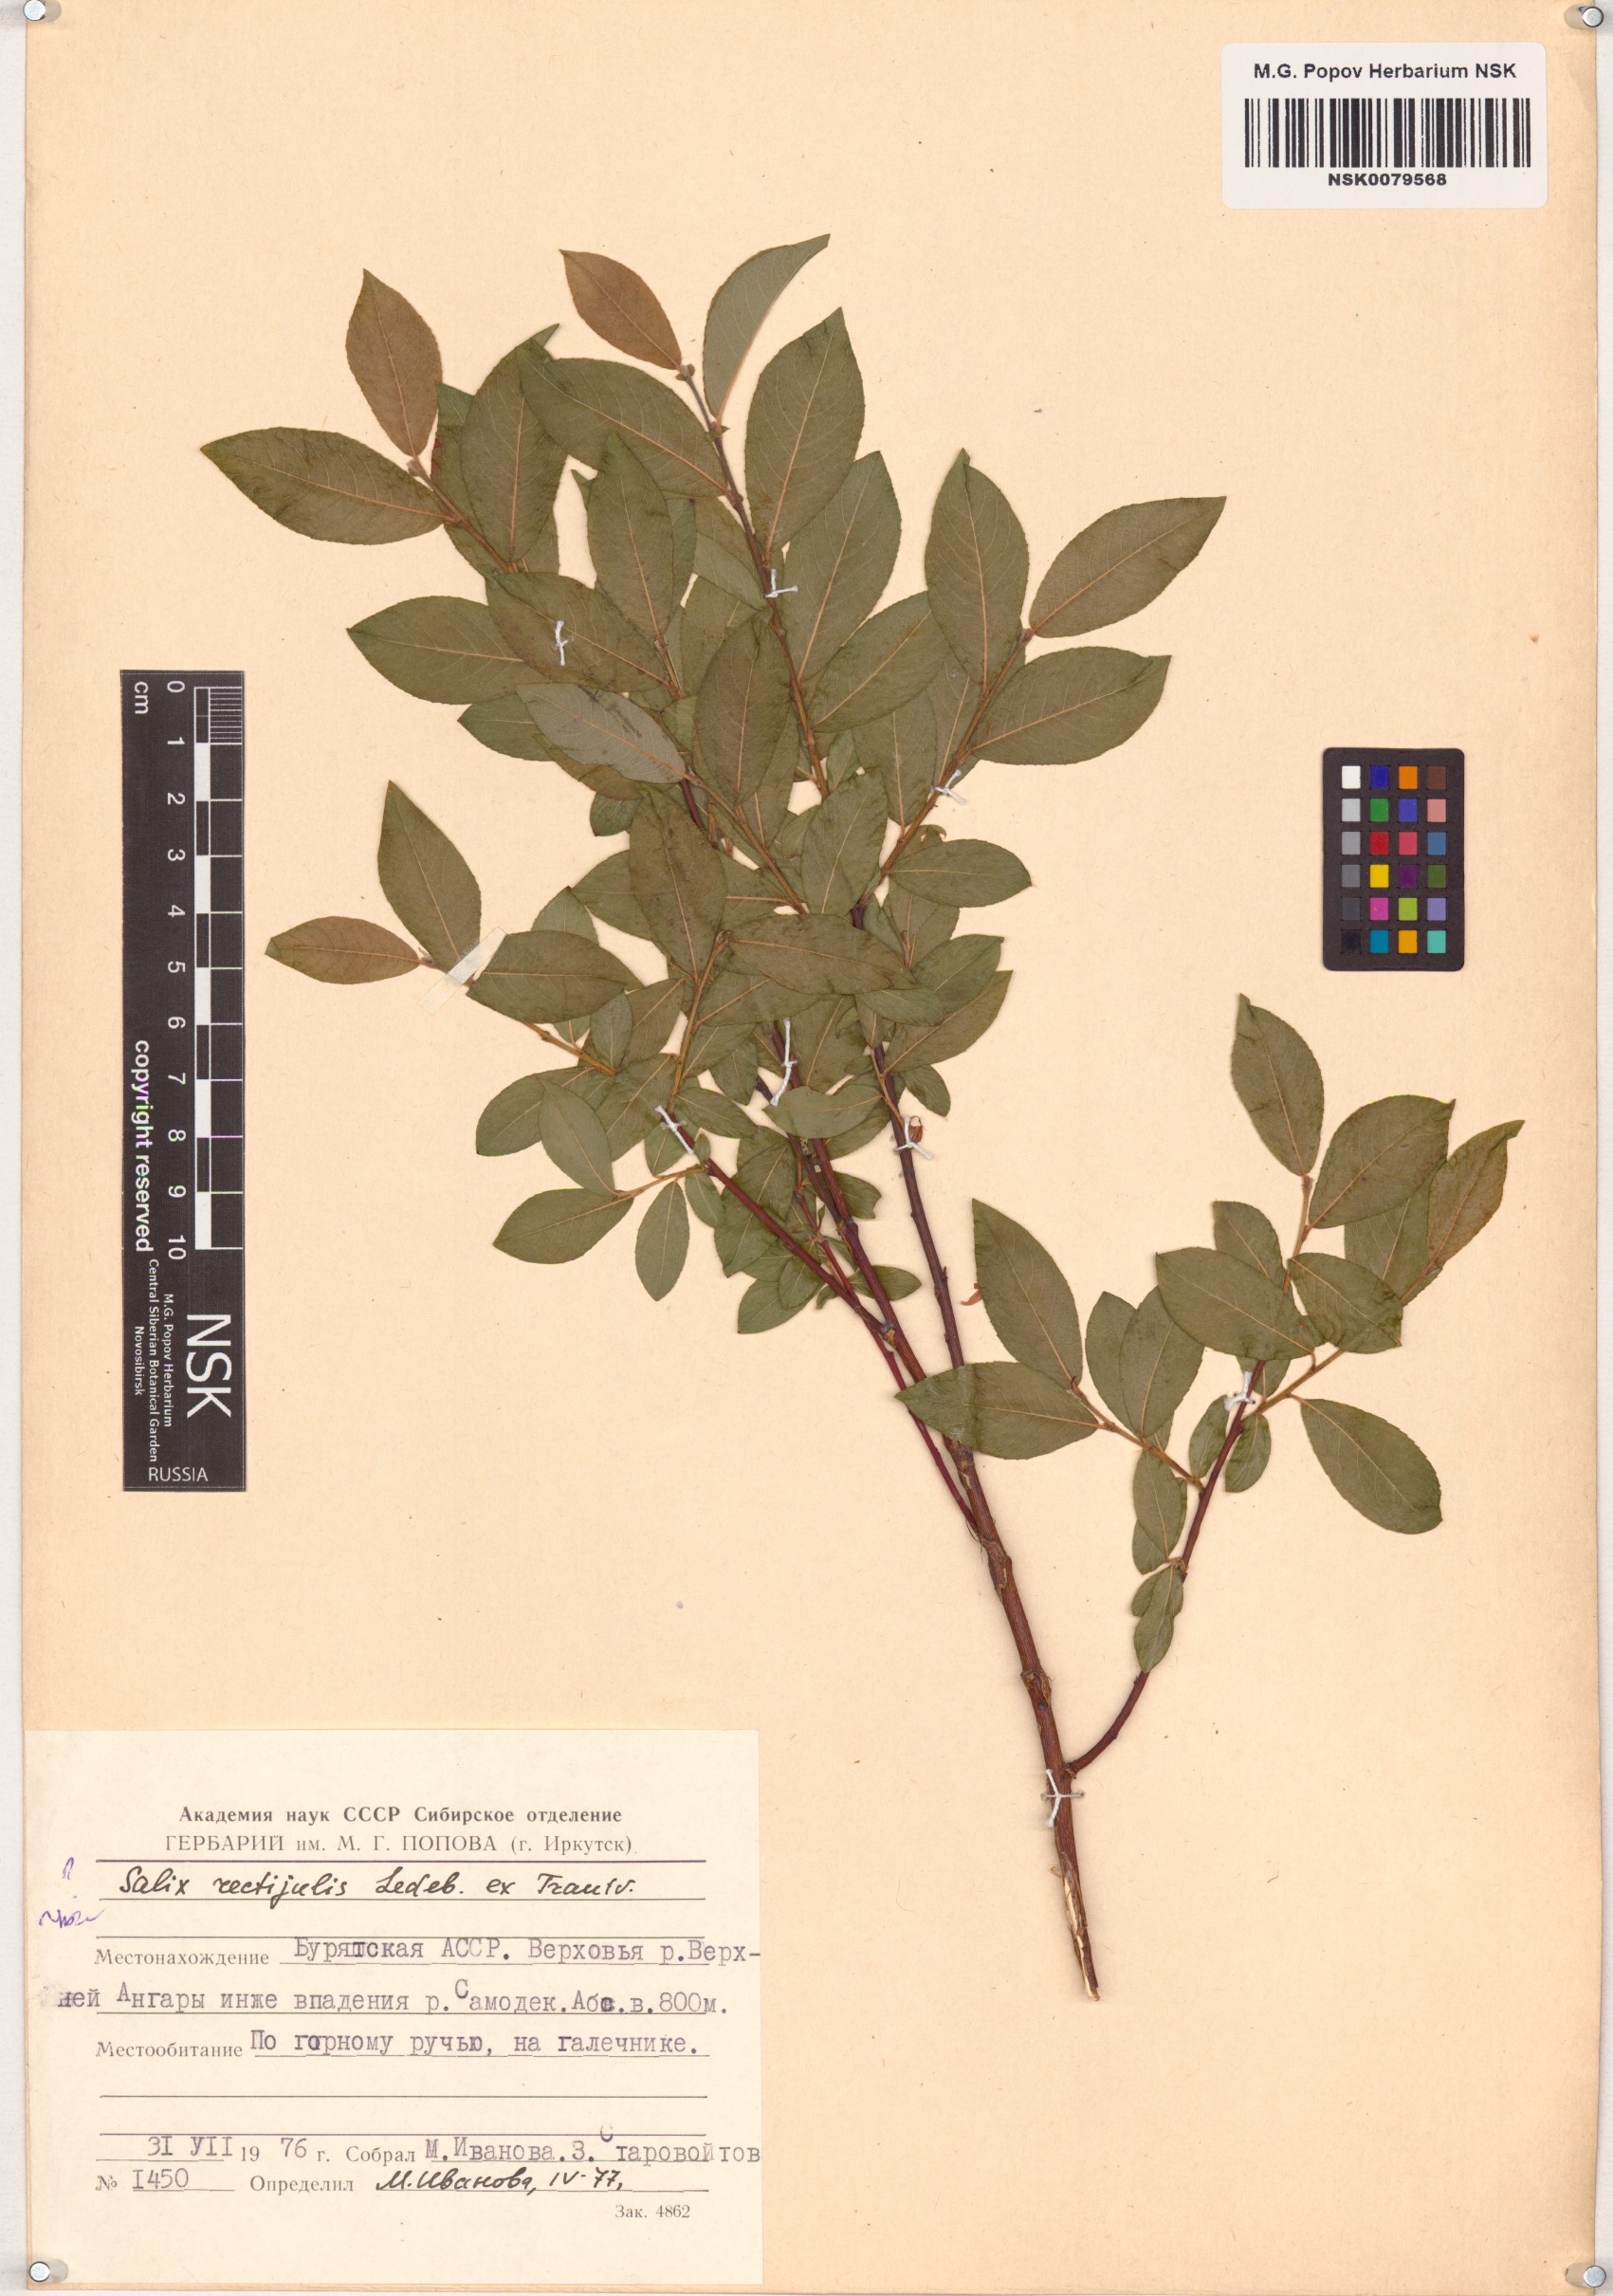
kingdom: Plantae
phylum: Tracheophyta
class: Magnoliopsida
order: Malpighiales
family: Salicaceae
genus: Salix
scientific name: Salix rectijulis
